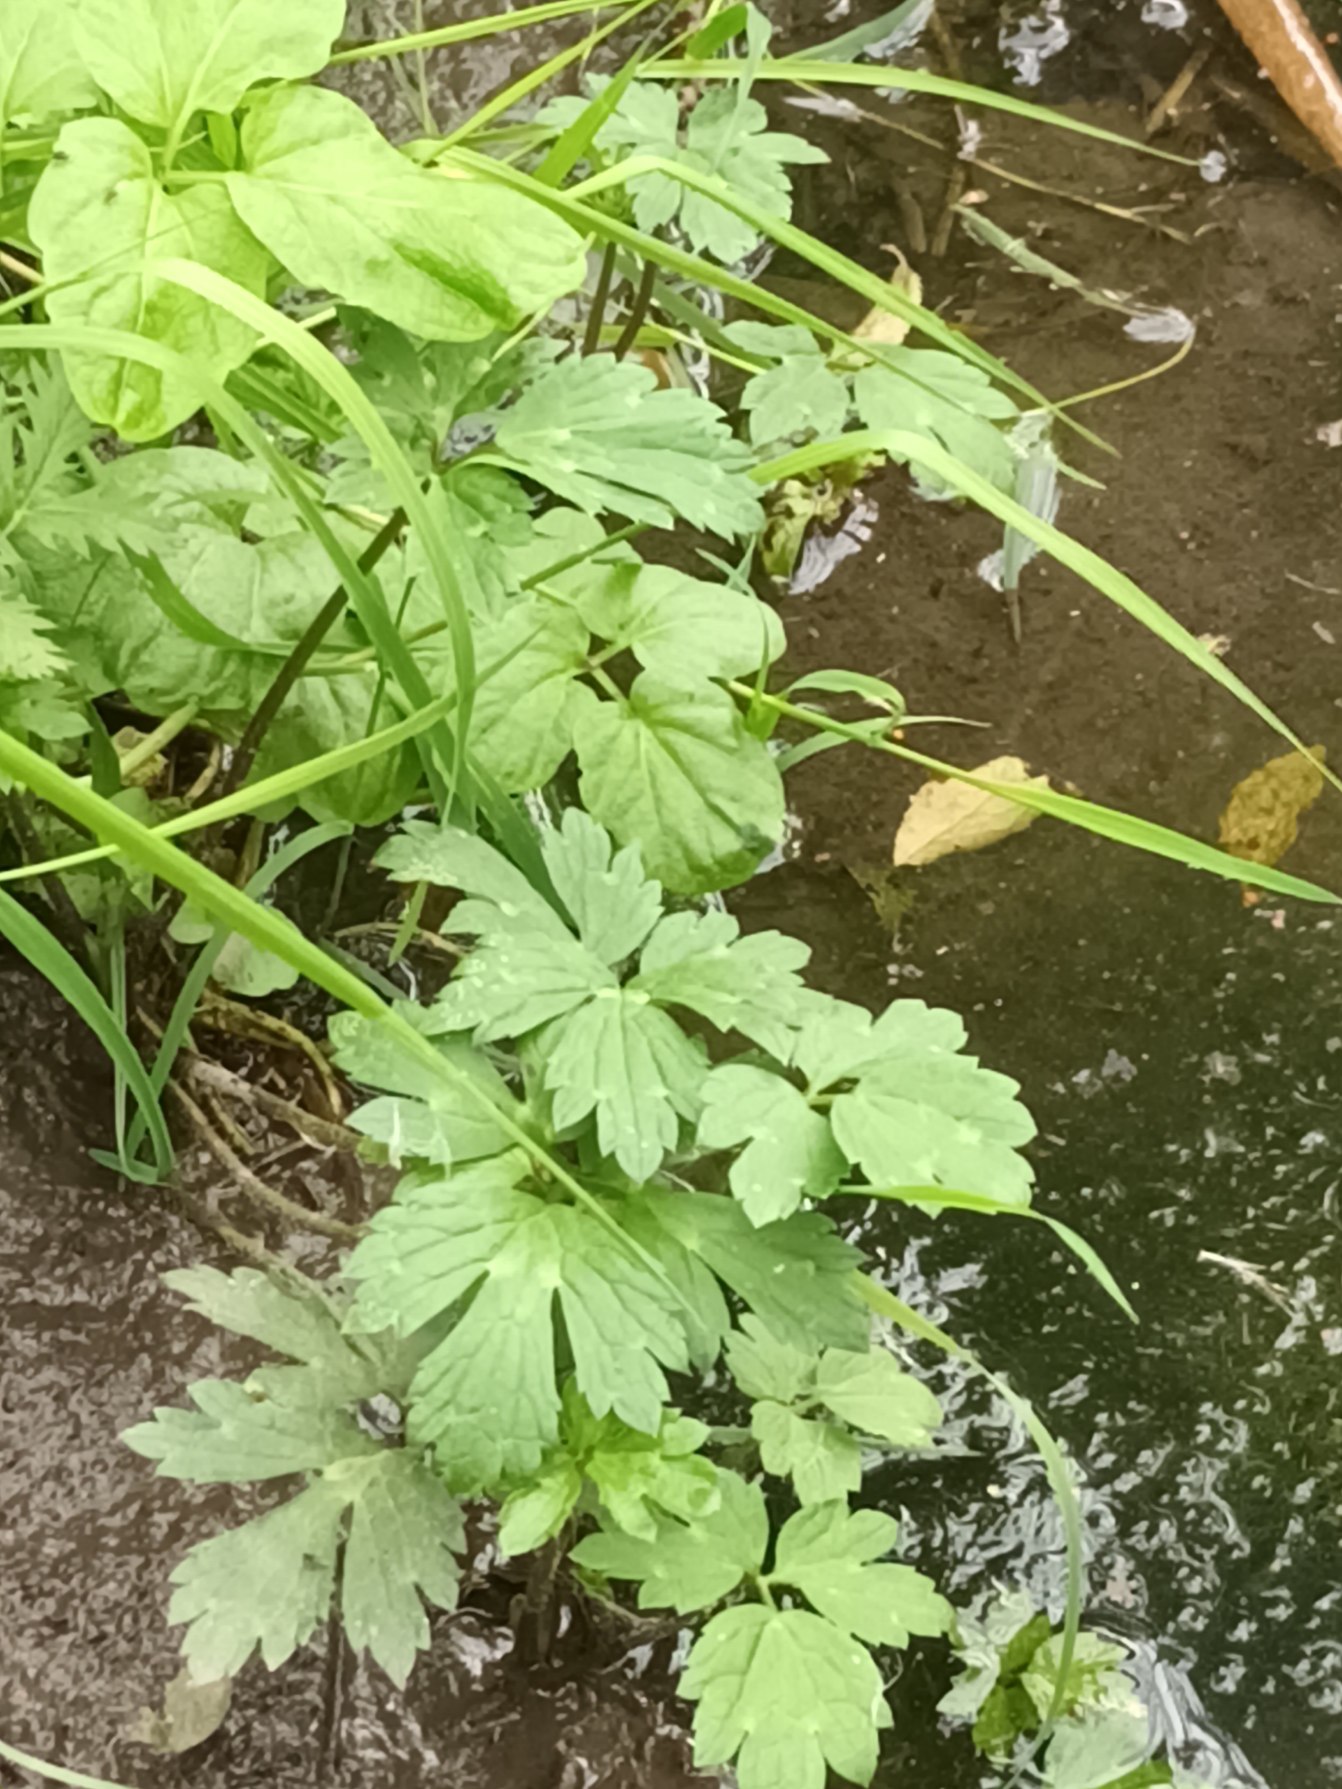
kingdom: Plantae
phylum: Tracheophyta
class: Magnoliopsida
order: Ranunculales
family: Ranunculaceae
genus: Ranunculus
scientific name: Ranunculus repens
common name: Lav ranunkel
